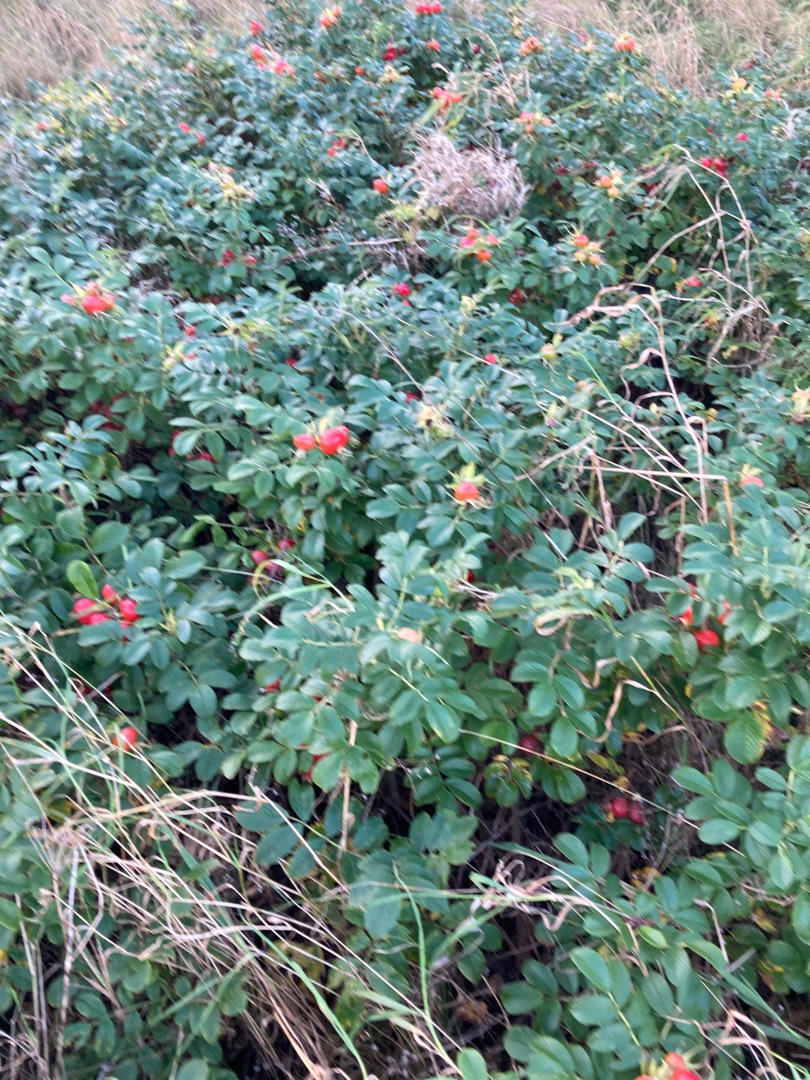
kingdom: Plantae
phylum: Tracheophyta
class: Magnoliopsida
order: Rosales
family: Rosaceae
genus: Rosa
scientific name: Rosa rugosa
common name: Rynket rose
